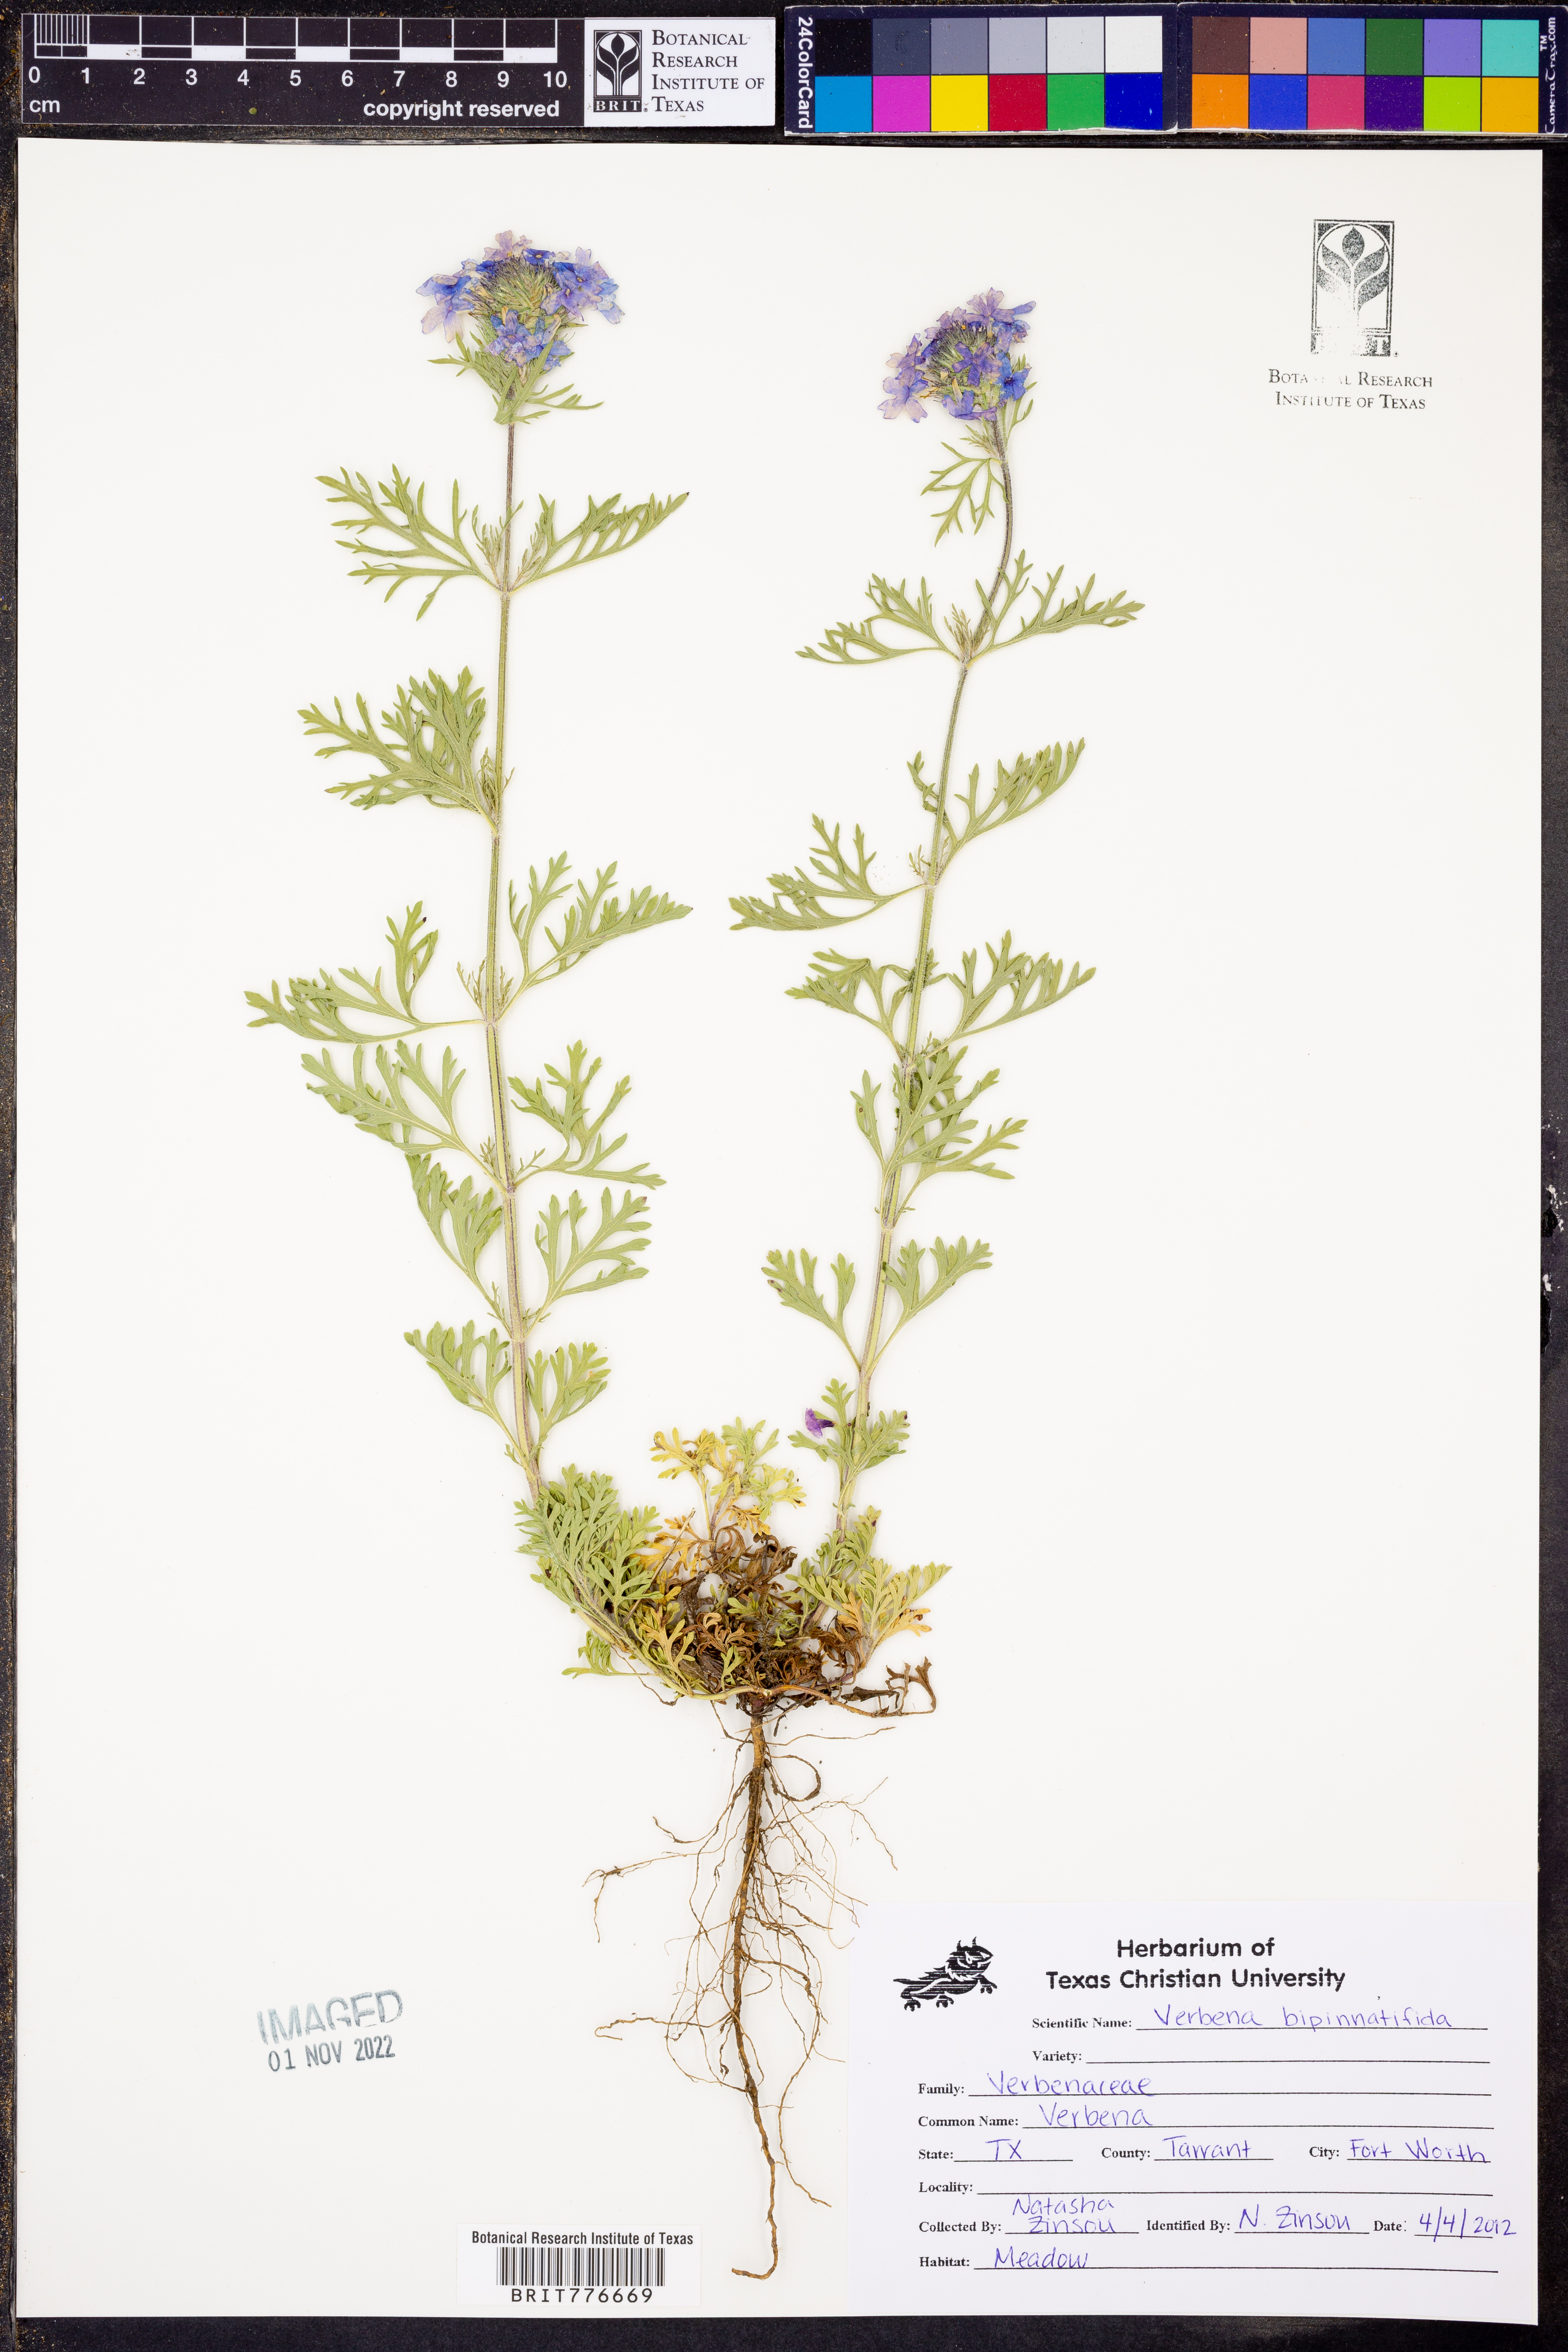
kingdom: Plantae
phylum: Tracheophyta
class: Magnoliopsida
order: Lamiales
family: Verbenaceae
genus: Verbena
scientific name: Verbena bipinnatifida
